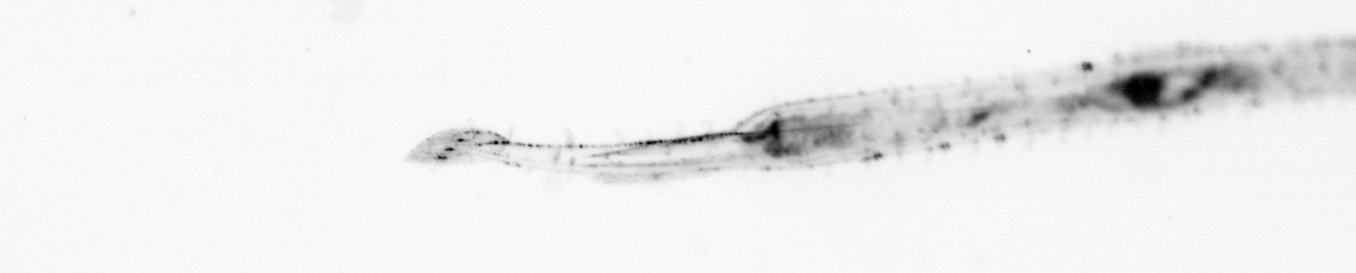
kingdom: Animalia
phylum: Chaetognatha
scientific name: Chaetognatha
